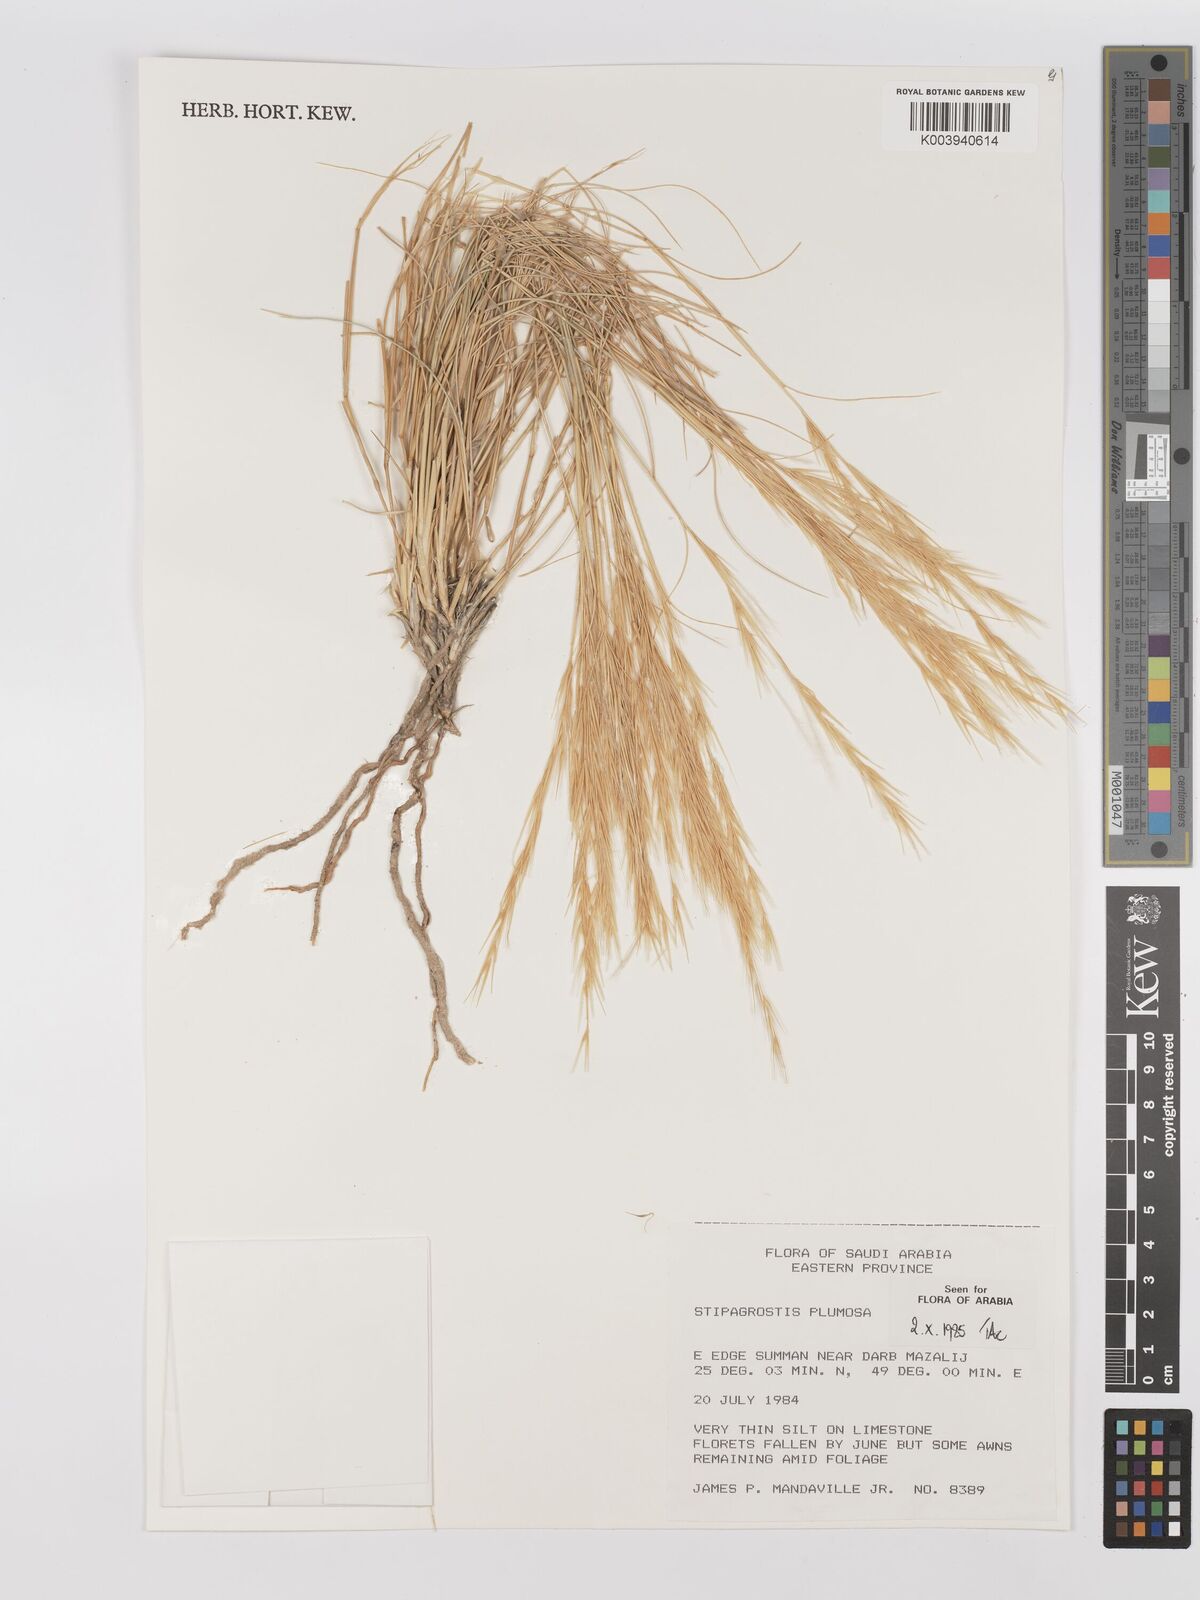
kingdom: Plantae
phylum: Tracheophyta
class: Liliopsida
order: Poales
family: Poaceae
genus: Stipagrostis
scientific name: Stipagrostis plumosa
